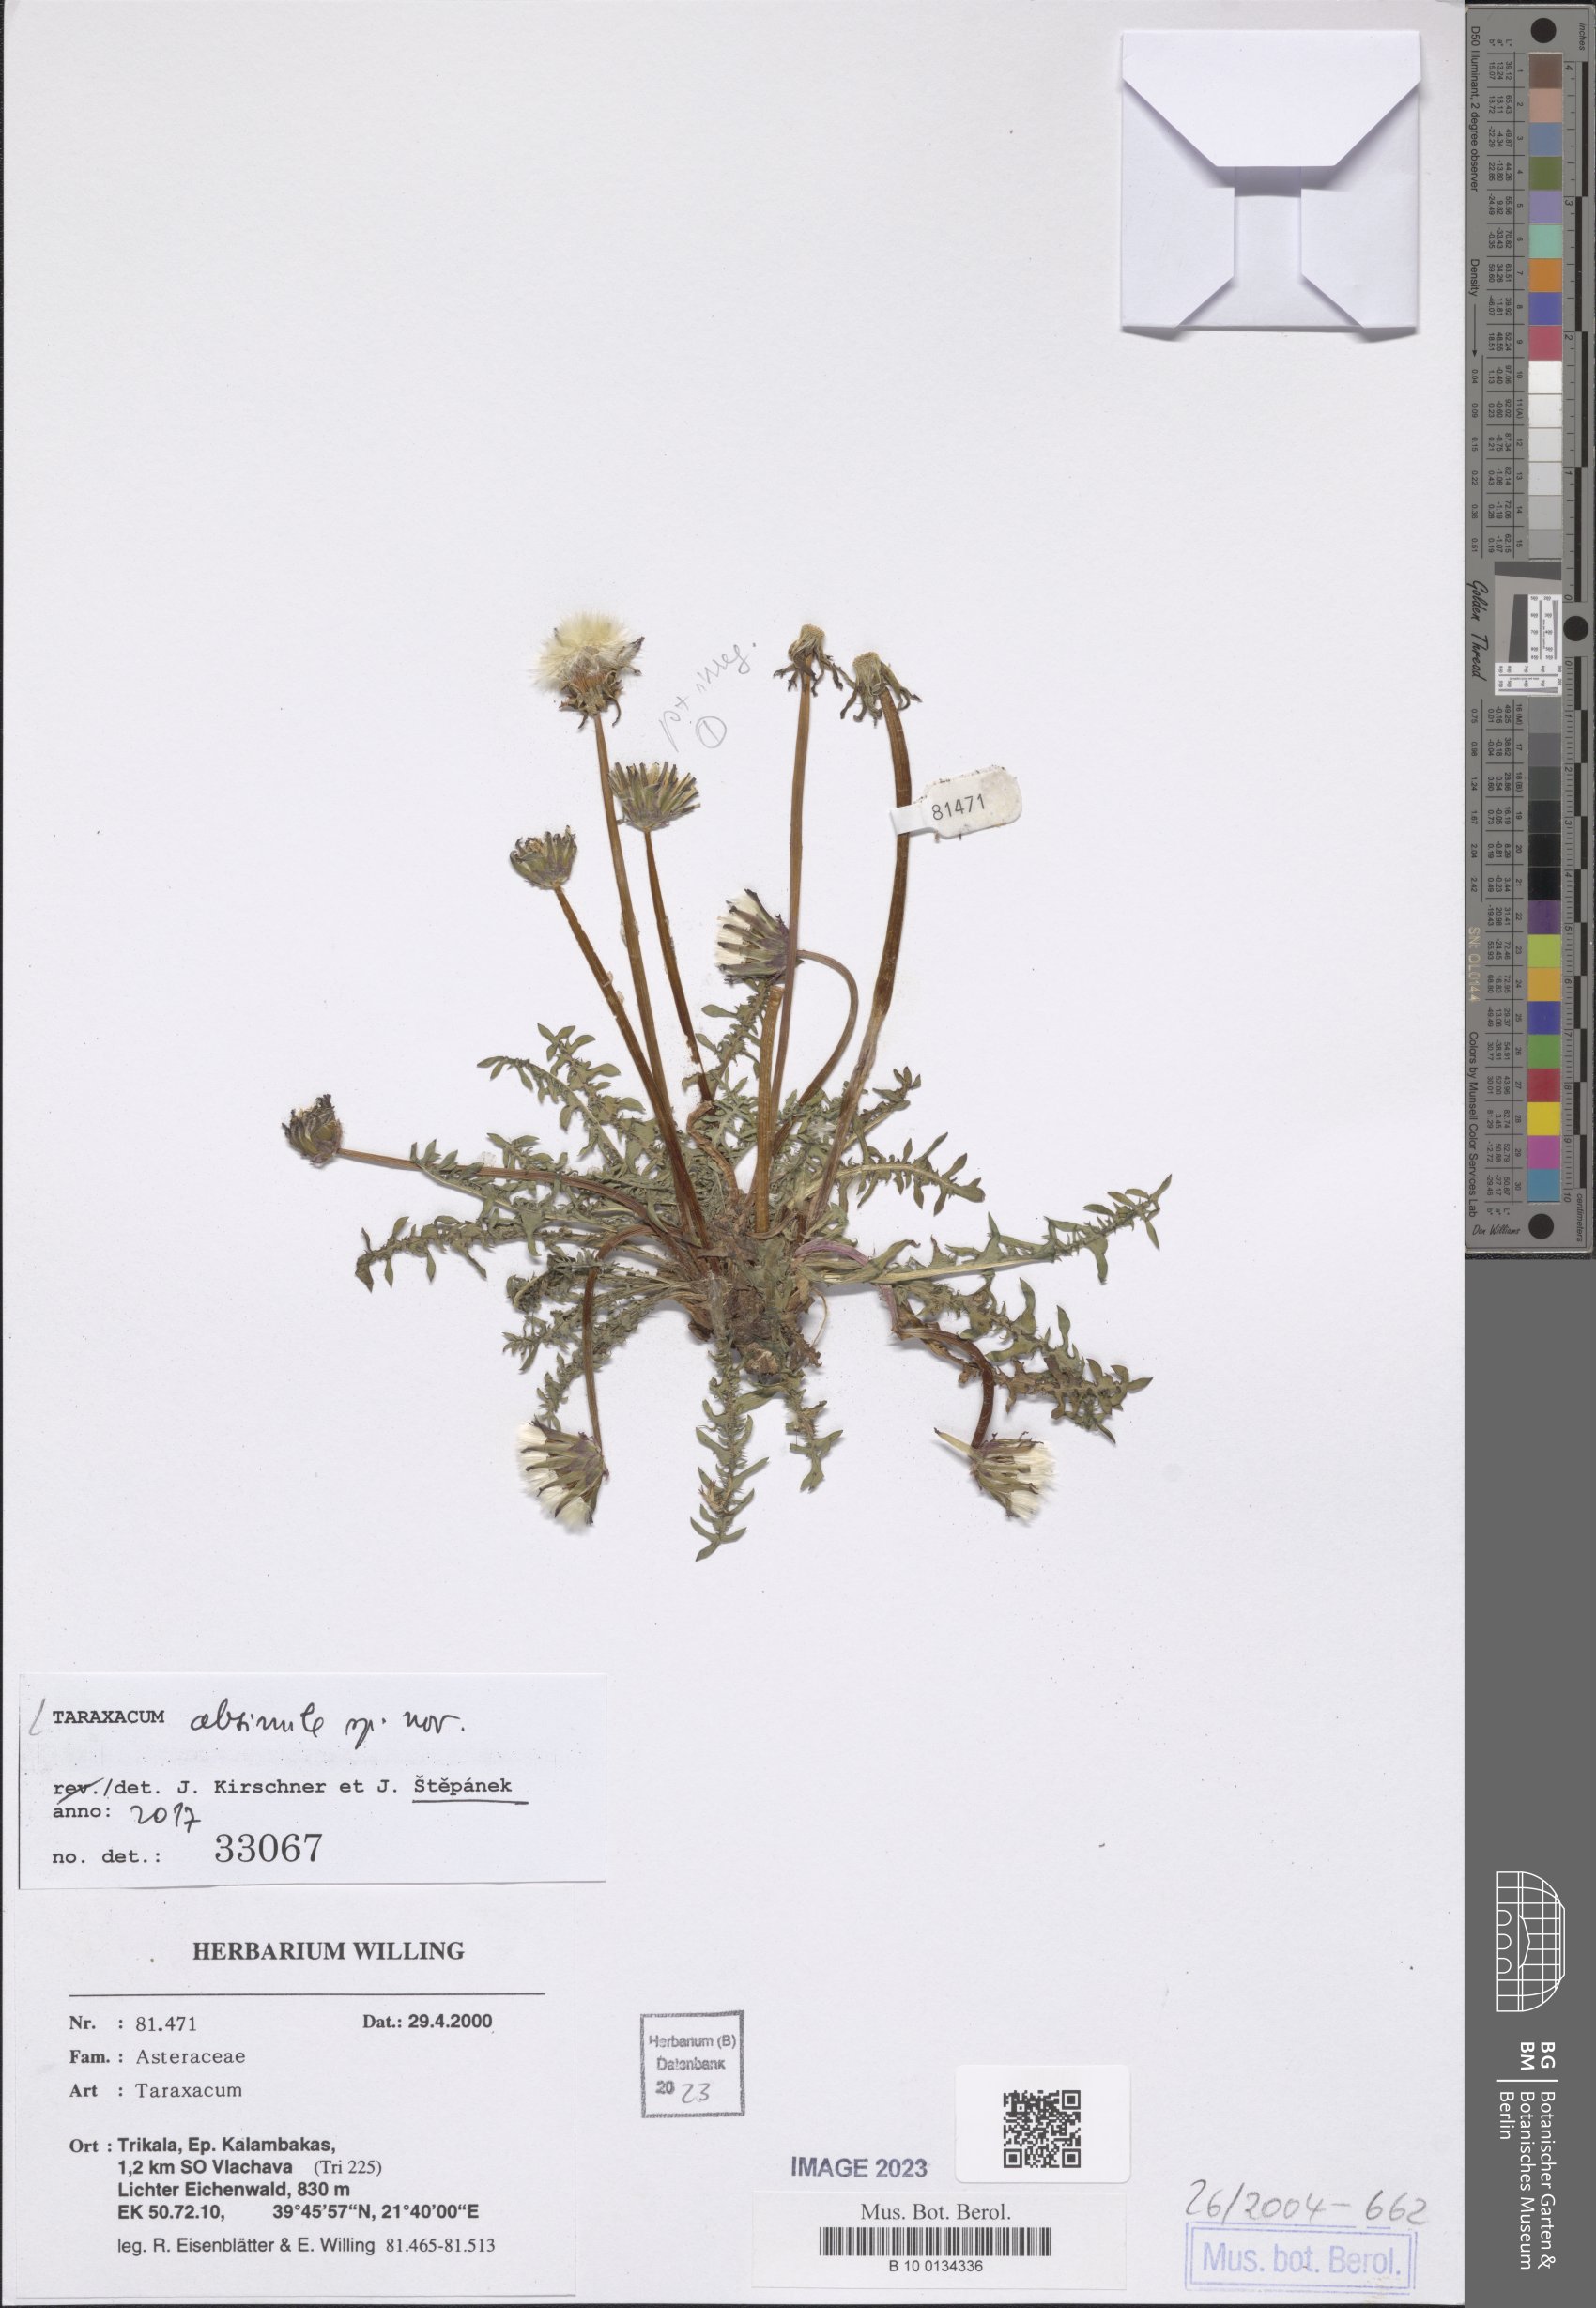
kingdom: Plantae
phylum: Tracheophyta
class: Magnoliopsida
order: Asterales
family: Asteraceae
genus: Taraxacum
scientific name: Taraxacum longisquameum
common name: Elongate-bracted dandelion
